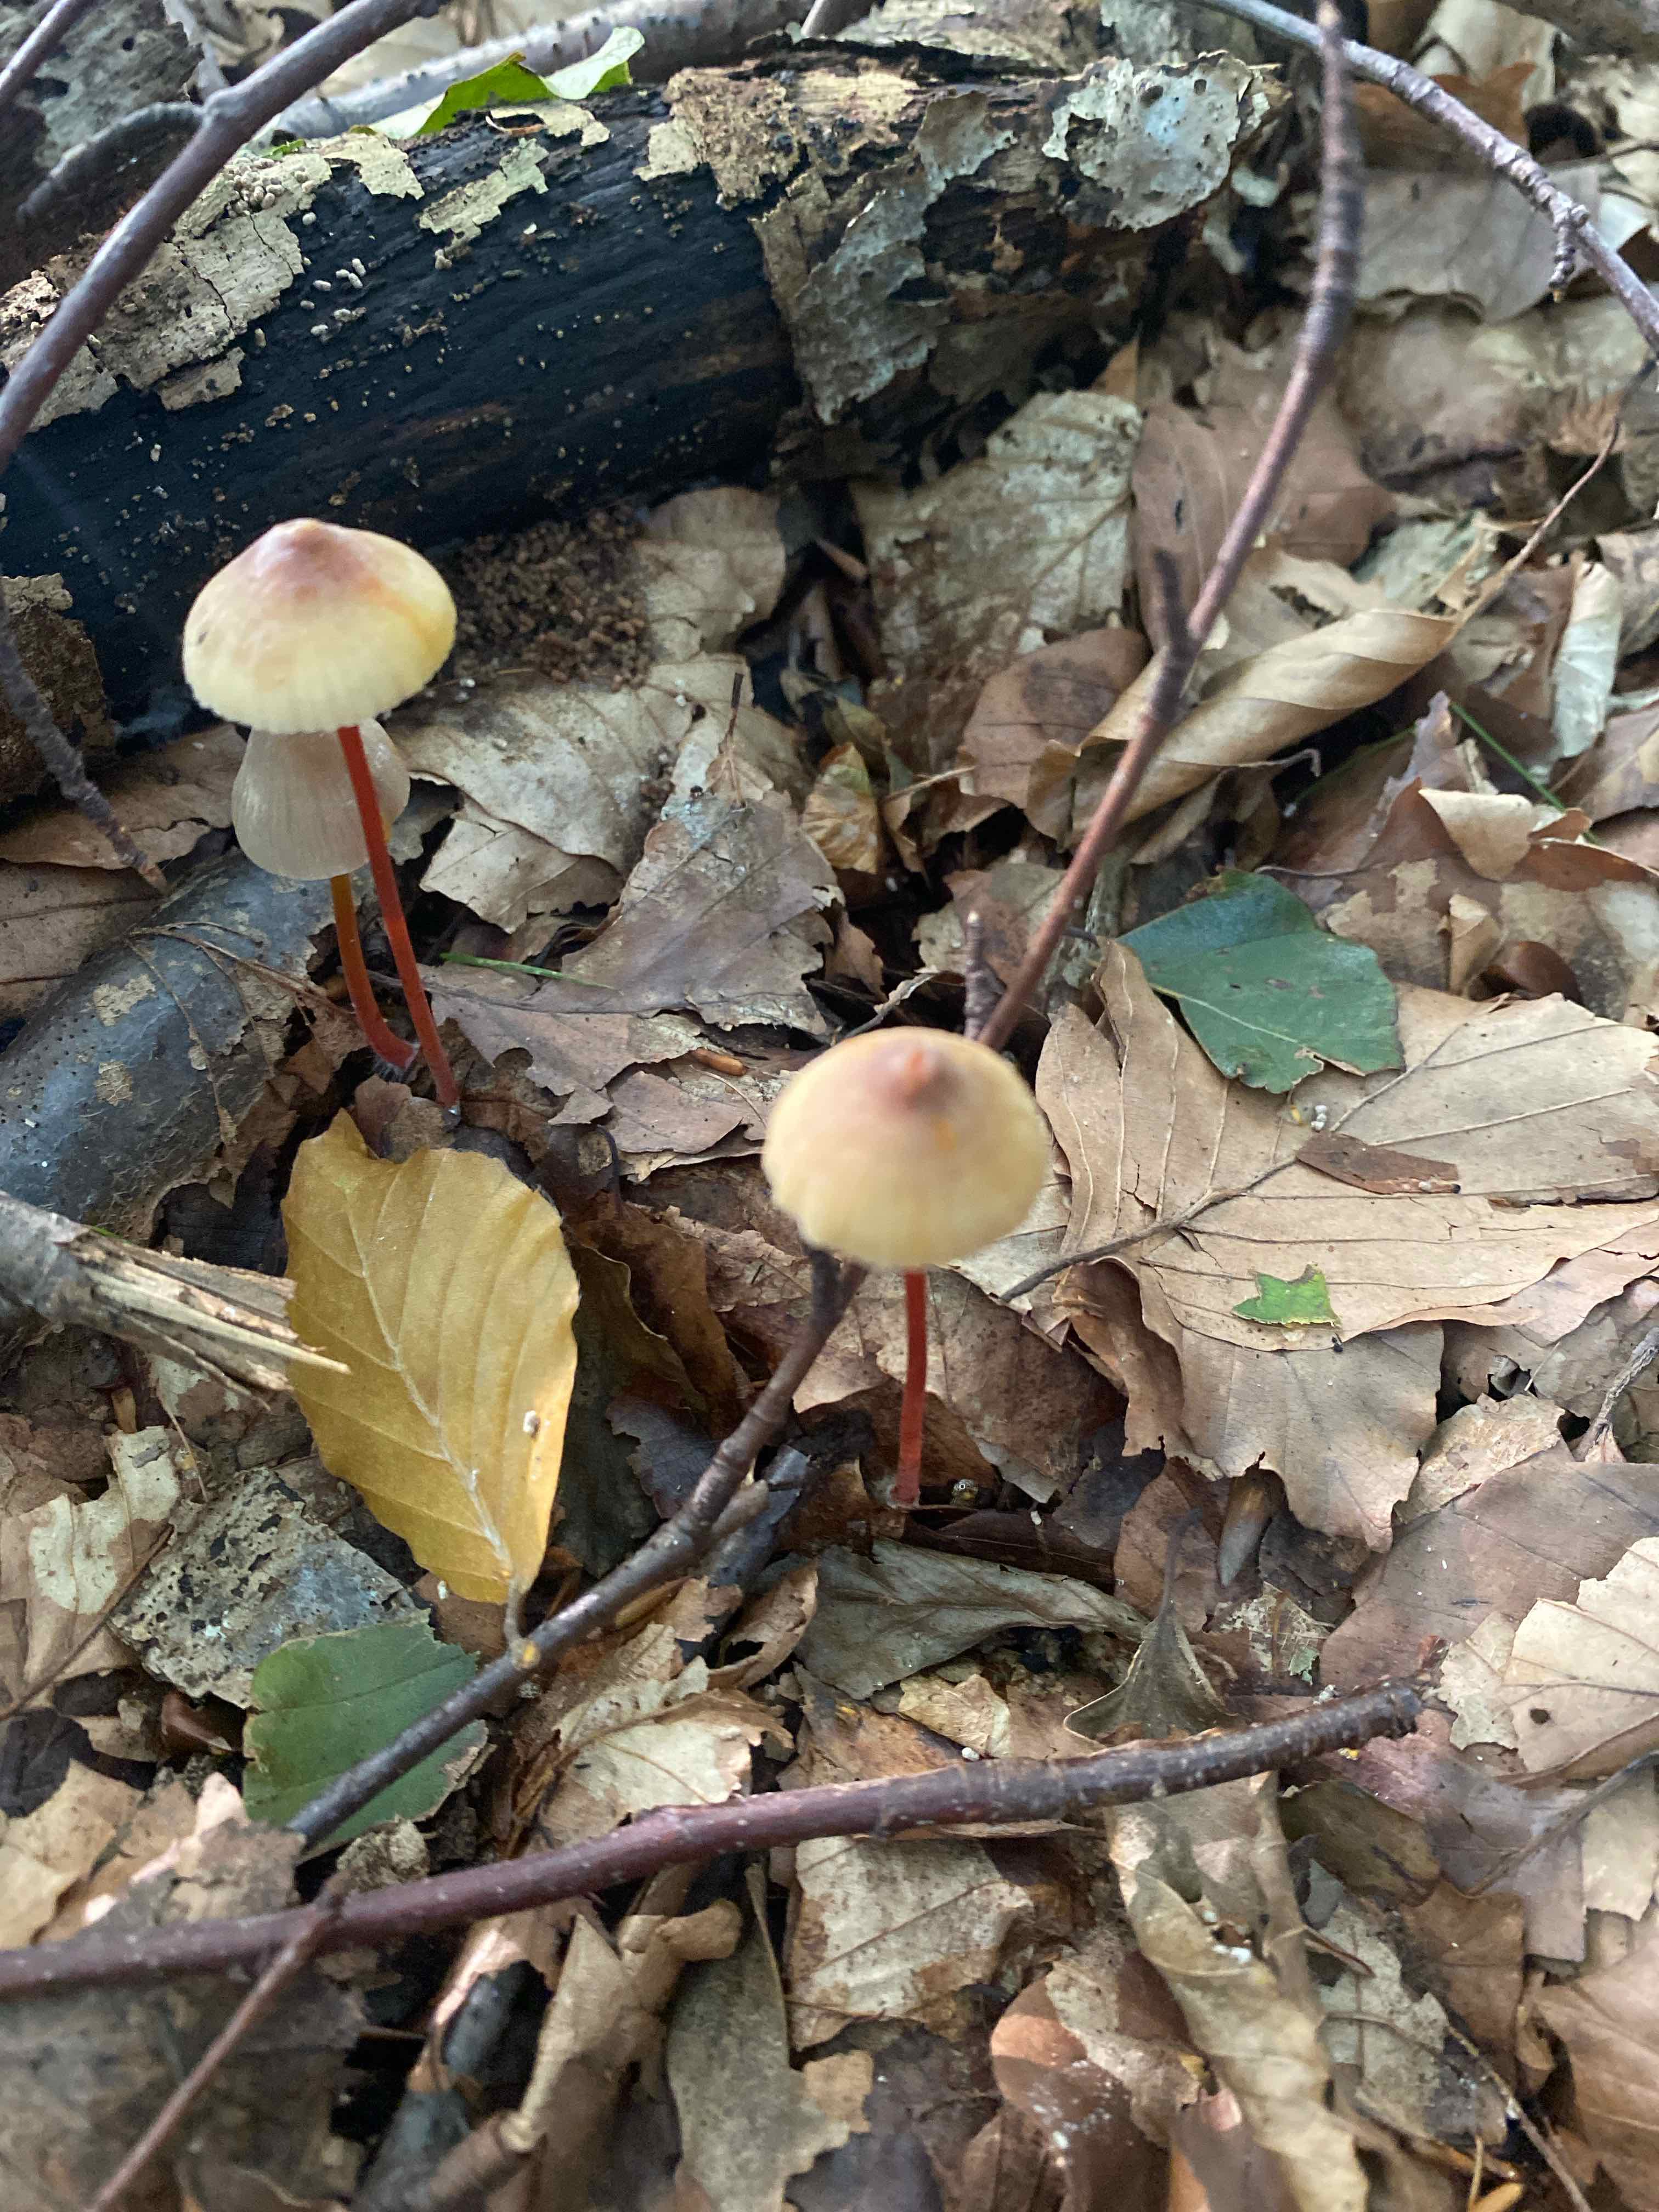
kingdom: Fungi
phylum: Basidiomycota
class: Agaricomycetes
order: Agaricales
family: Mycenaceae
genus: Mycena
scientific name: Mycena crocata
